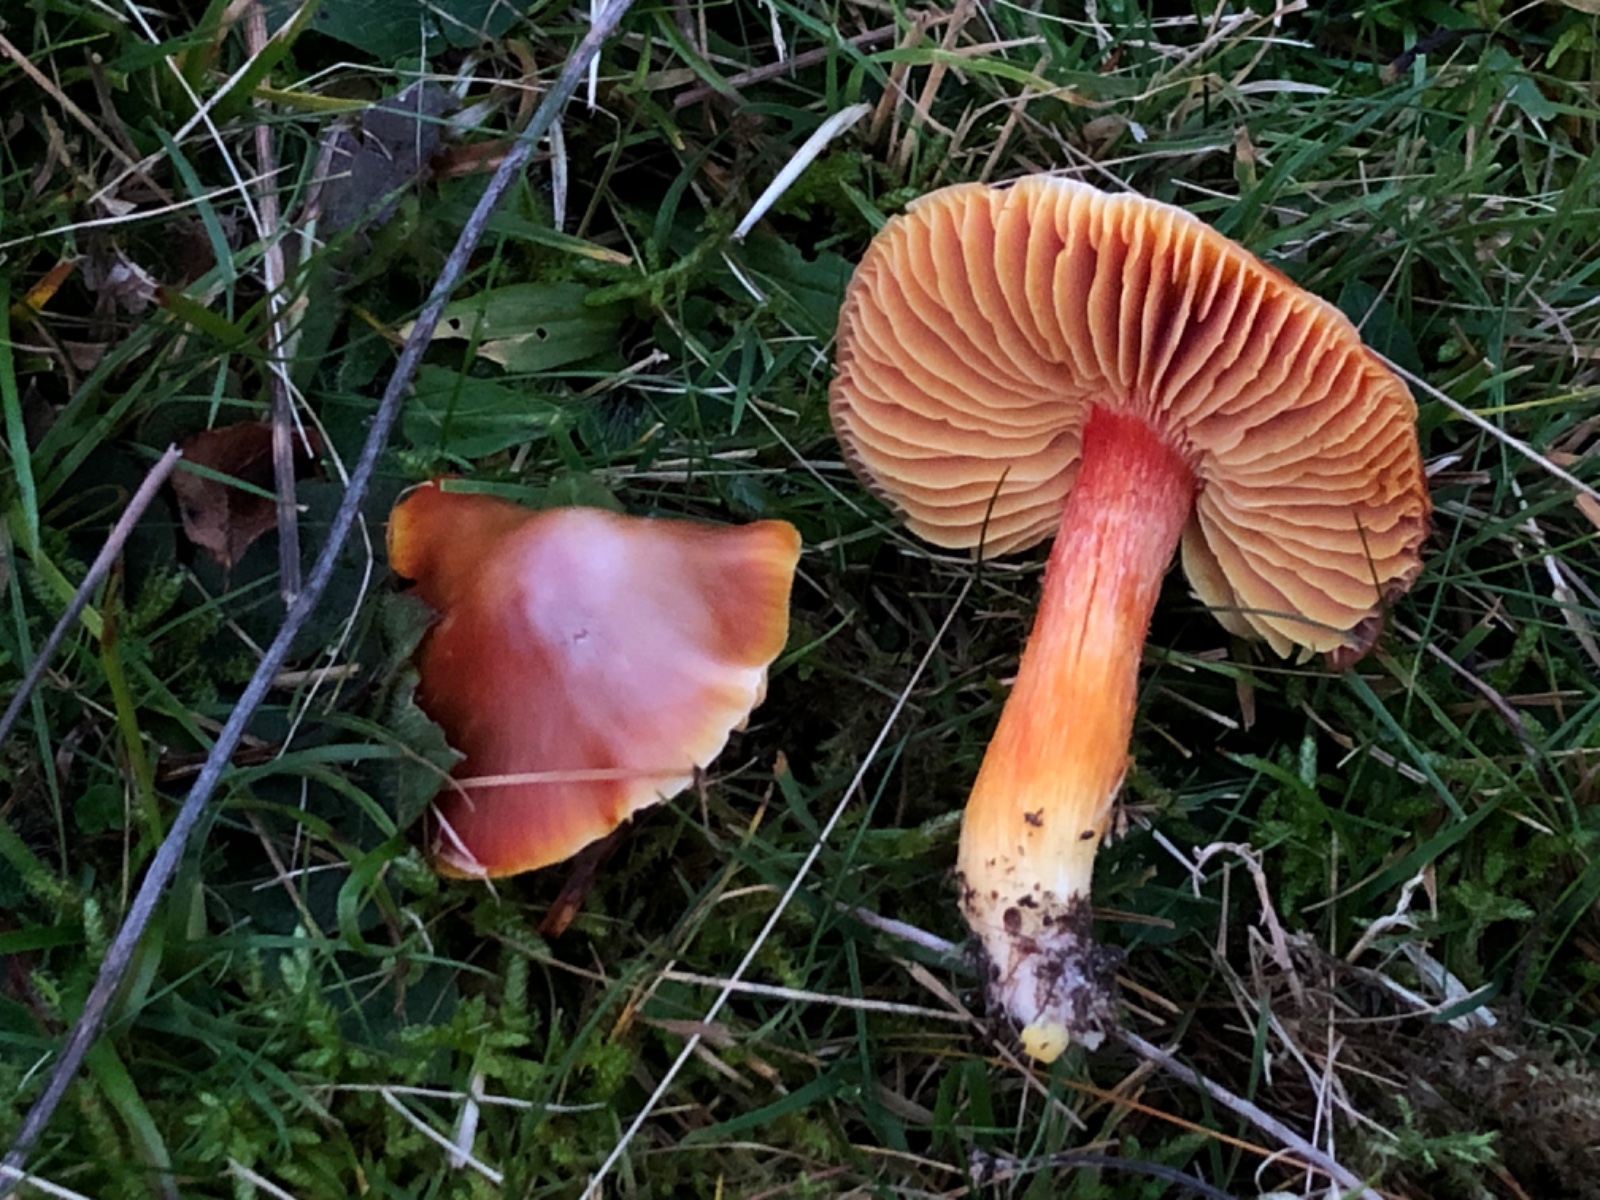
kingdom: Fungi
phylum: Basidiomycota
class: Agaricomycetes
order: Agaricales
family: Hygrophoraceae
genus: Hygrocybe
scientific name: Hygrocybe punicea
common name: skarlagen-vokshat
